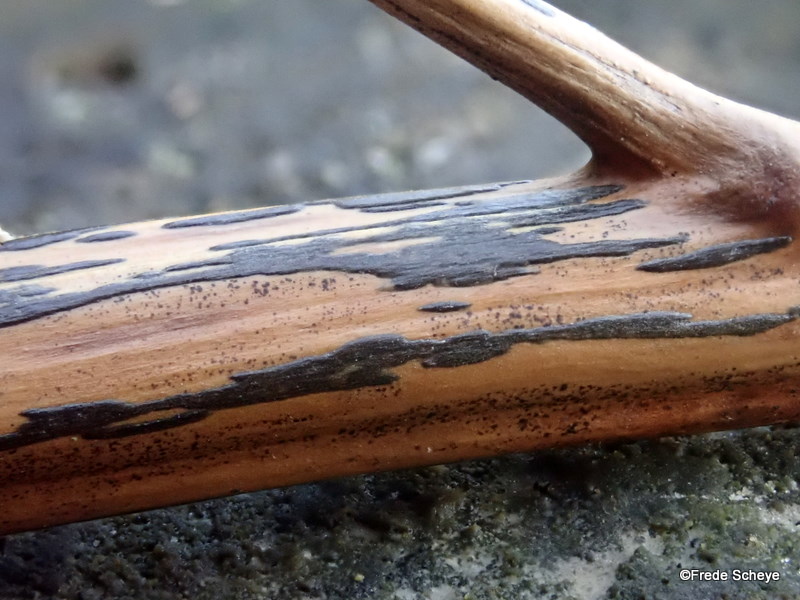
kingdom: Fungi
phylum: Ascomycota
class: Dothideomycetes
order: Pleosporales
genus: Rhopographus
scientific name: Rhopographus filicinus
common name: Bracken map
